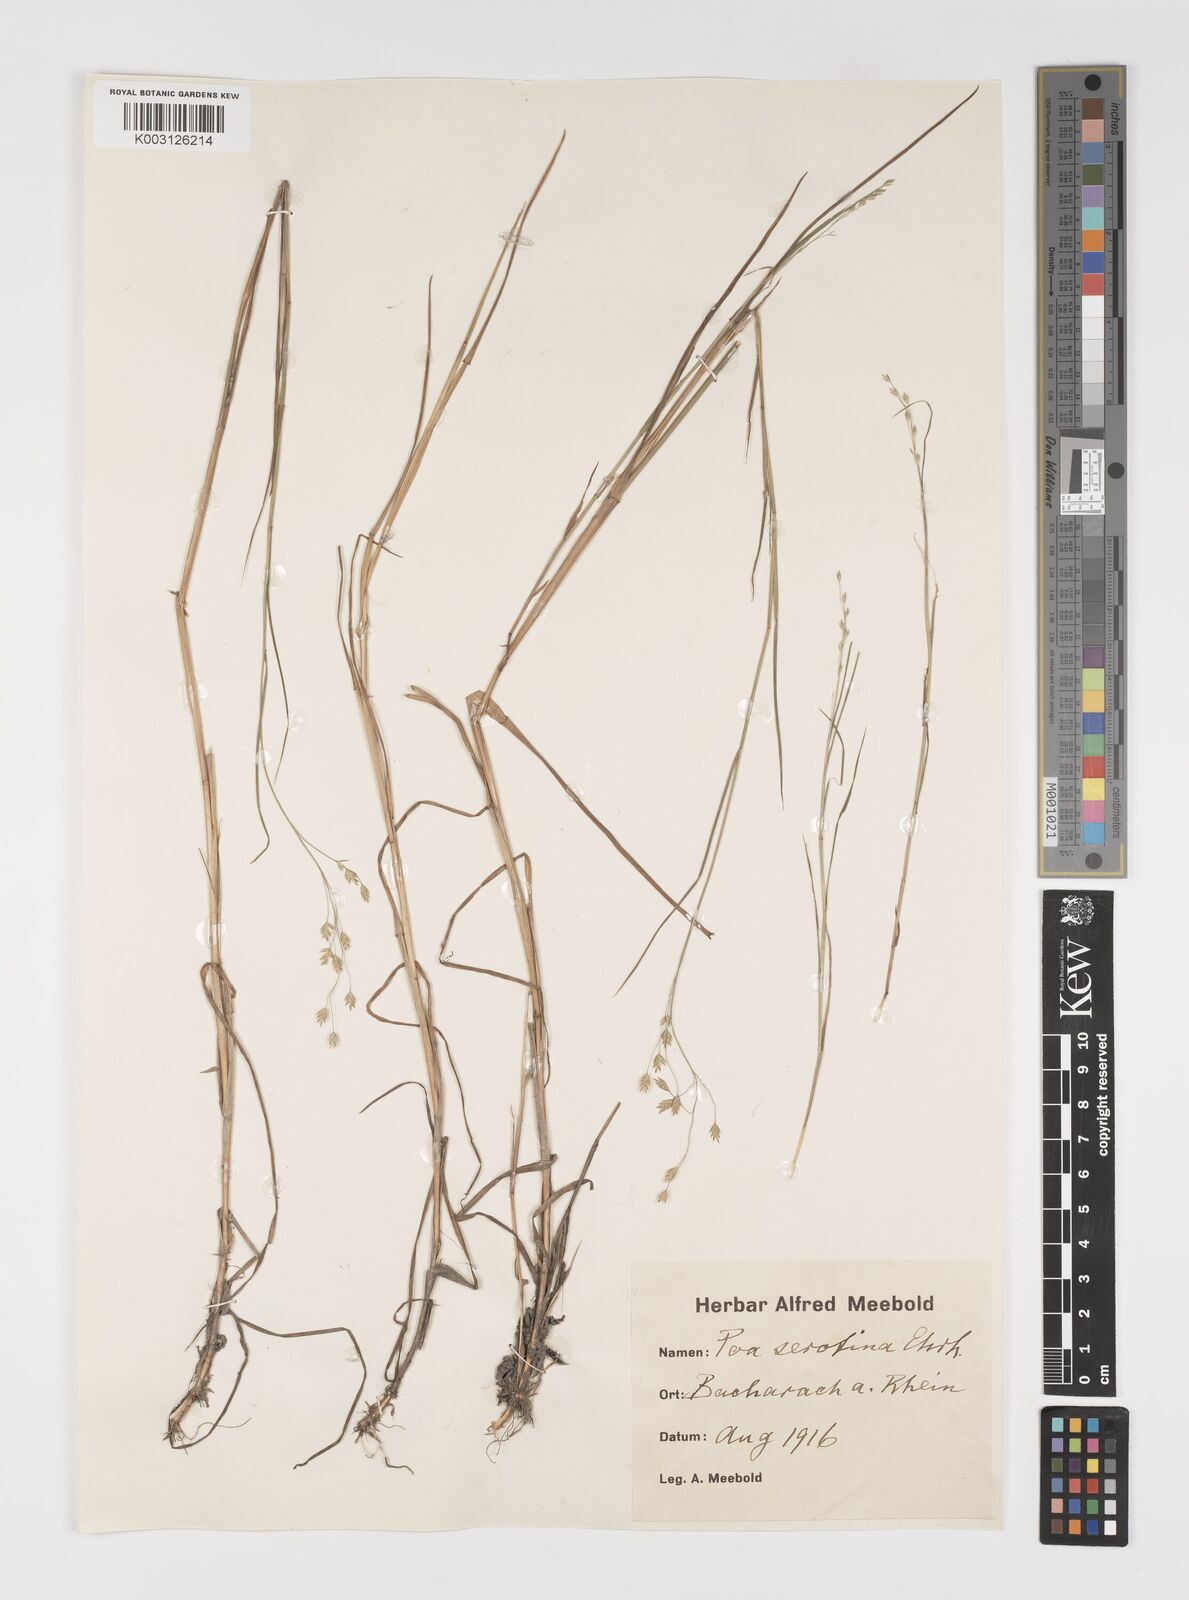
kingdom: Plantae
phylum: Tracheophyta
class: Liliopsida
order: Poales
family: Poaceae
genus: Poa
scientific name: Poa palustris
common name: Swamp meadow-grass
